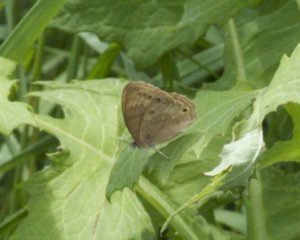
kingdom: Animalia
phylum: Arthropoda
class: Insecta
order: Lepidoptera
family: Nymphalidae
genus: Lethe
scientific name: Lethe eurydice
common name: Eyed Brown
